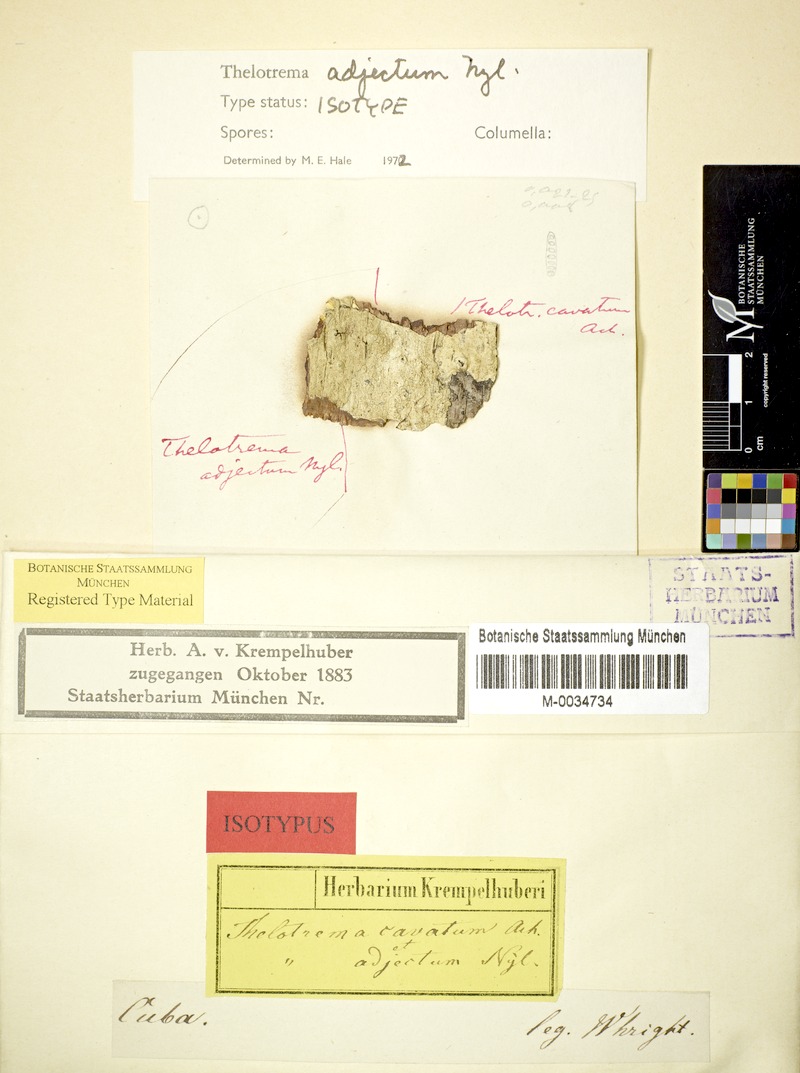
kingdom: Fungi
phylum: Ascomycota
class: Lecanoromycetes
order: Ostropales
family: Graphidaceae
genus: Thelotrema
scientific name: Thelotrema adjectum
